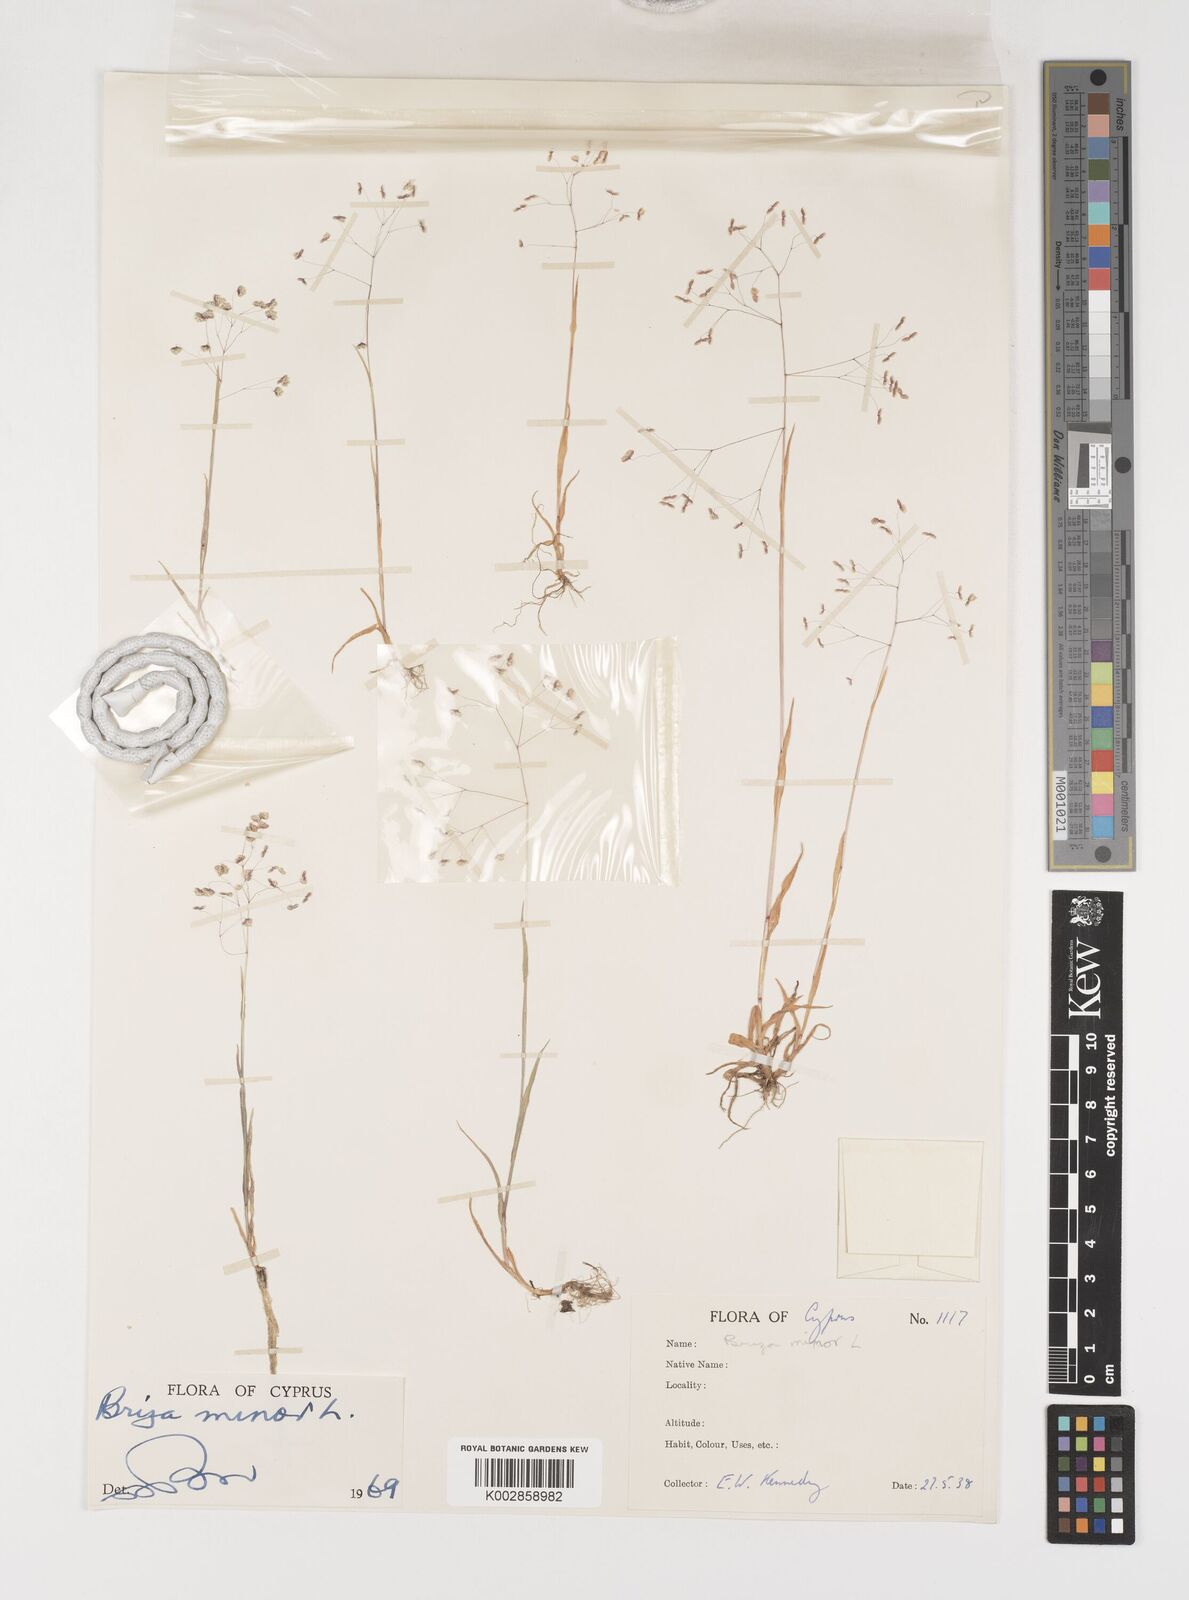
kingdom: Plantae
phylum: Tracheophyta
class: Liliopsida
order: Poales
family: Poaceae
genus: Briza
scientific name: Briza minor
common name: Lesser quaking-grass
